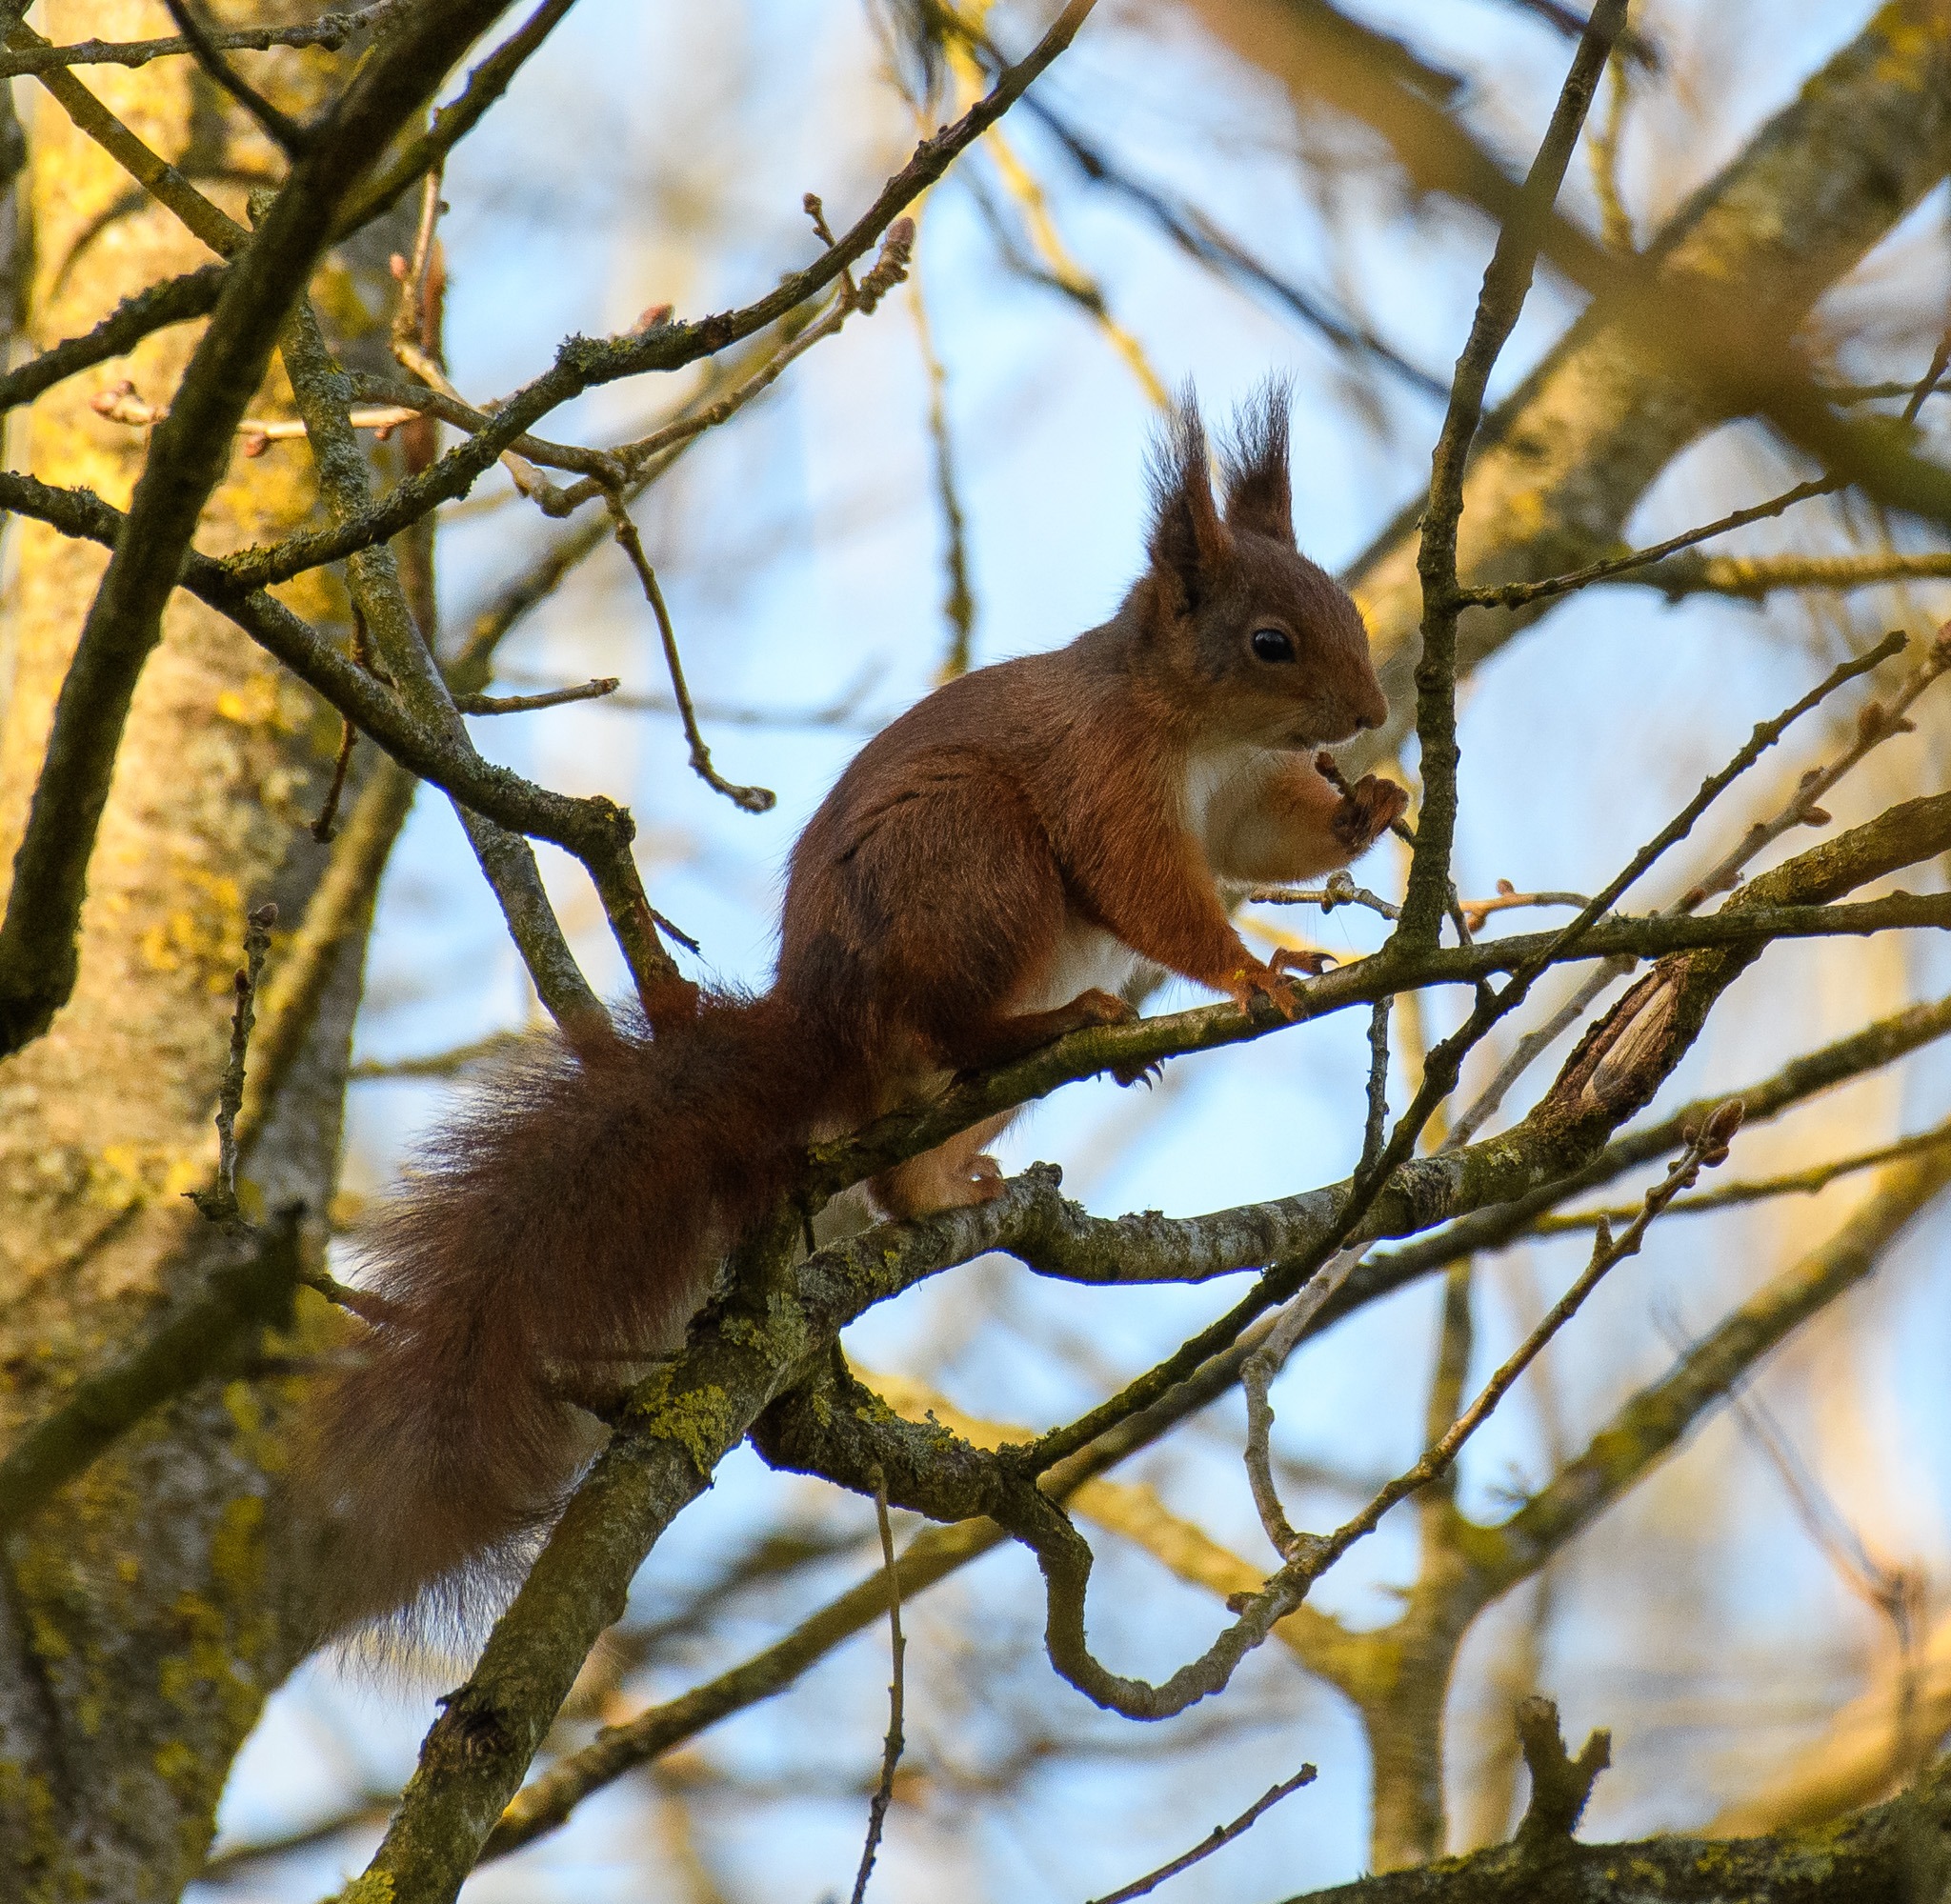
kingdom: Animalia
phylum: Chordata
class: Mammalia
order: Rodentia
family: Sciuridae
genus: Sciurus
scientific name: Sciurus vulgaris
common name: Egern
